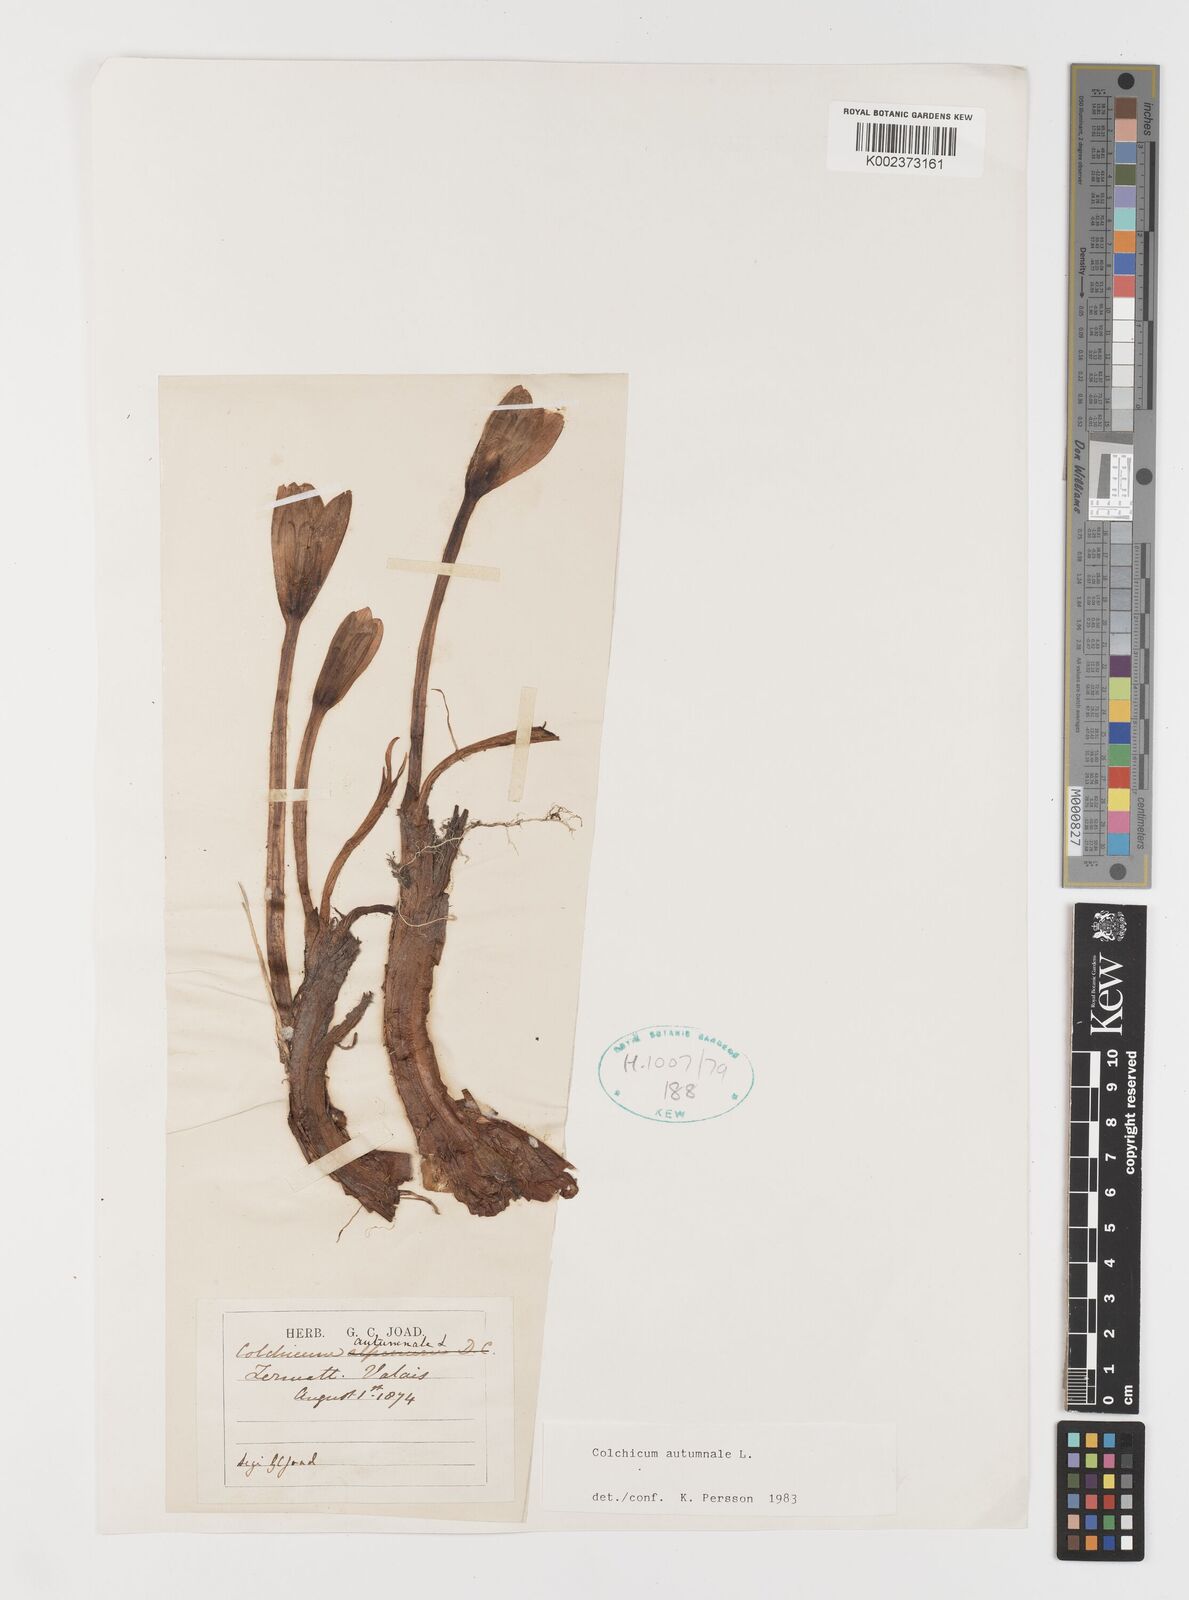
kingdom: Plantae
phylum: Tracheophyta
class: Liliopsida
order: Liliales
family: Colchicaceae
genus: Colchicum
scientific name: Colchicum autumnale
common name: Autumn crocus
